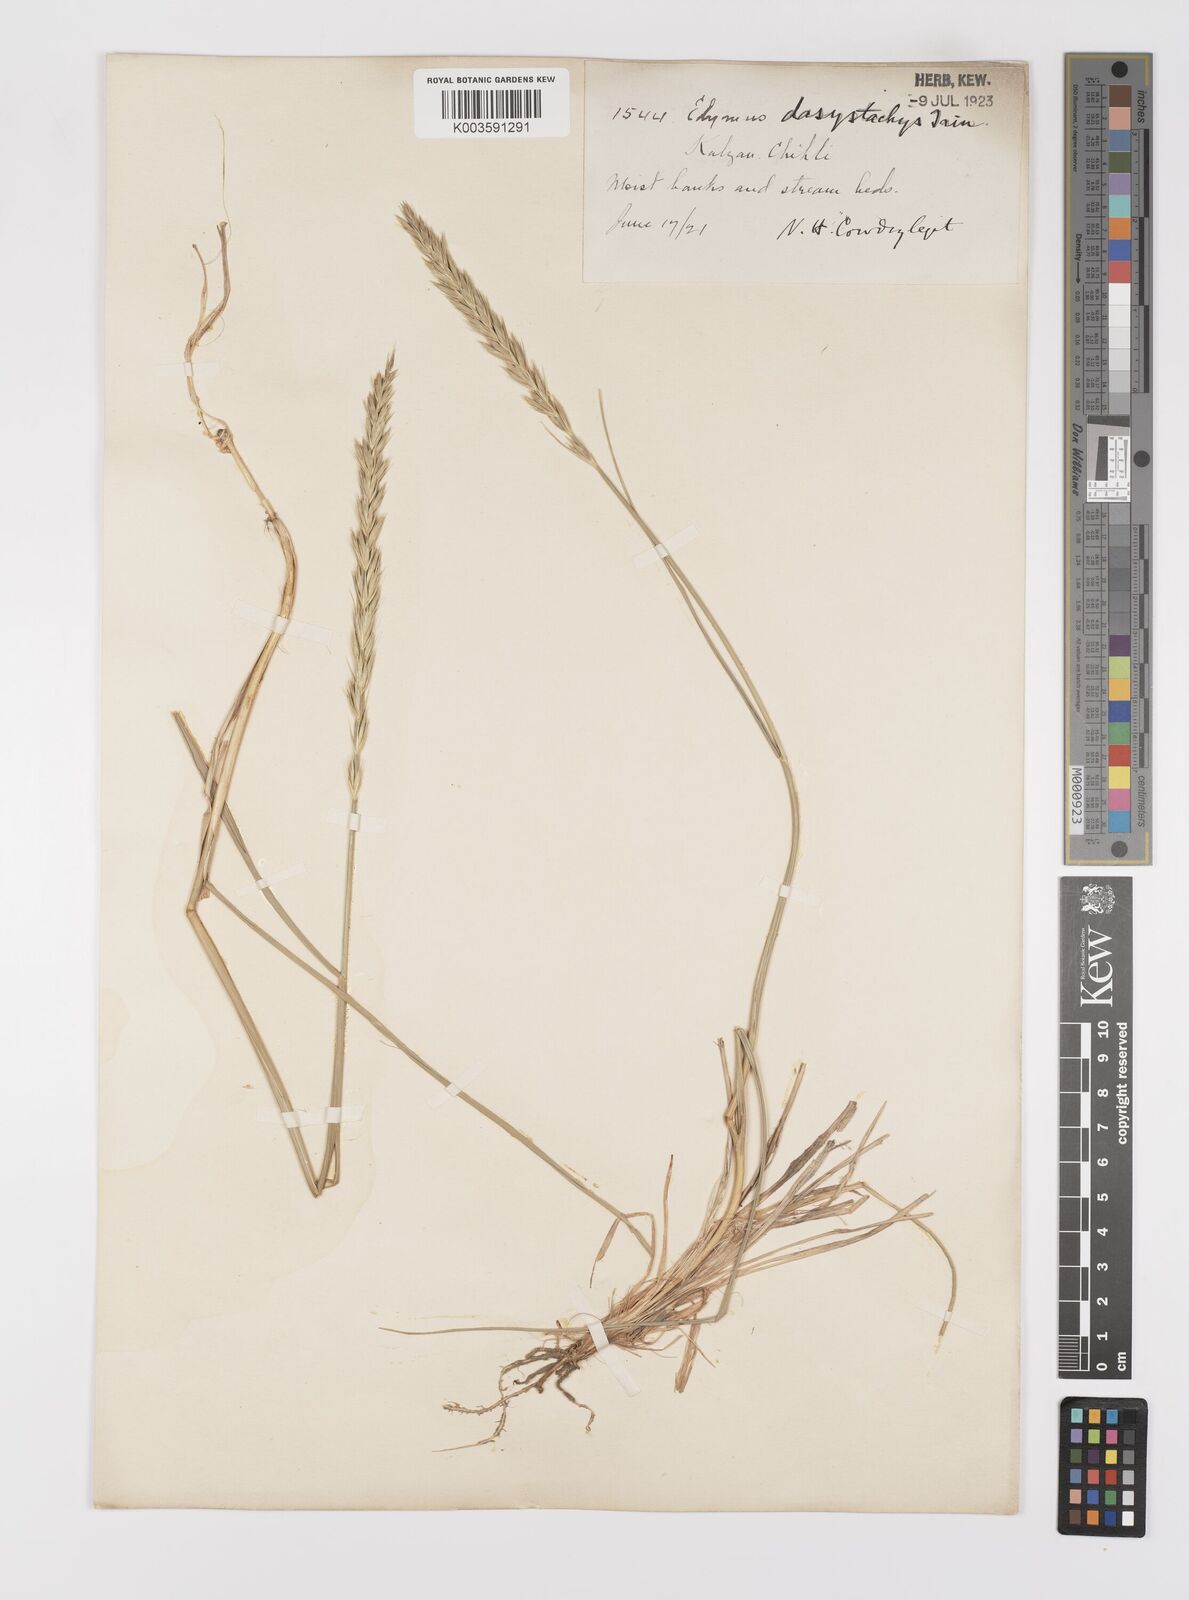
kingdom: Plantae
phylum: Tracheophyta
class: Liliopsida
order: Poales
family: Poaceae
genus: Leymus
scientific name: Leymus secalinus
